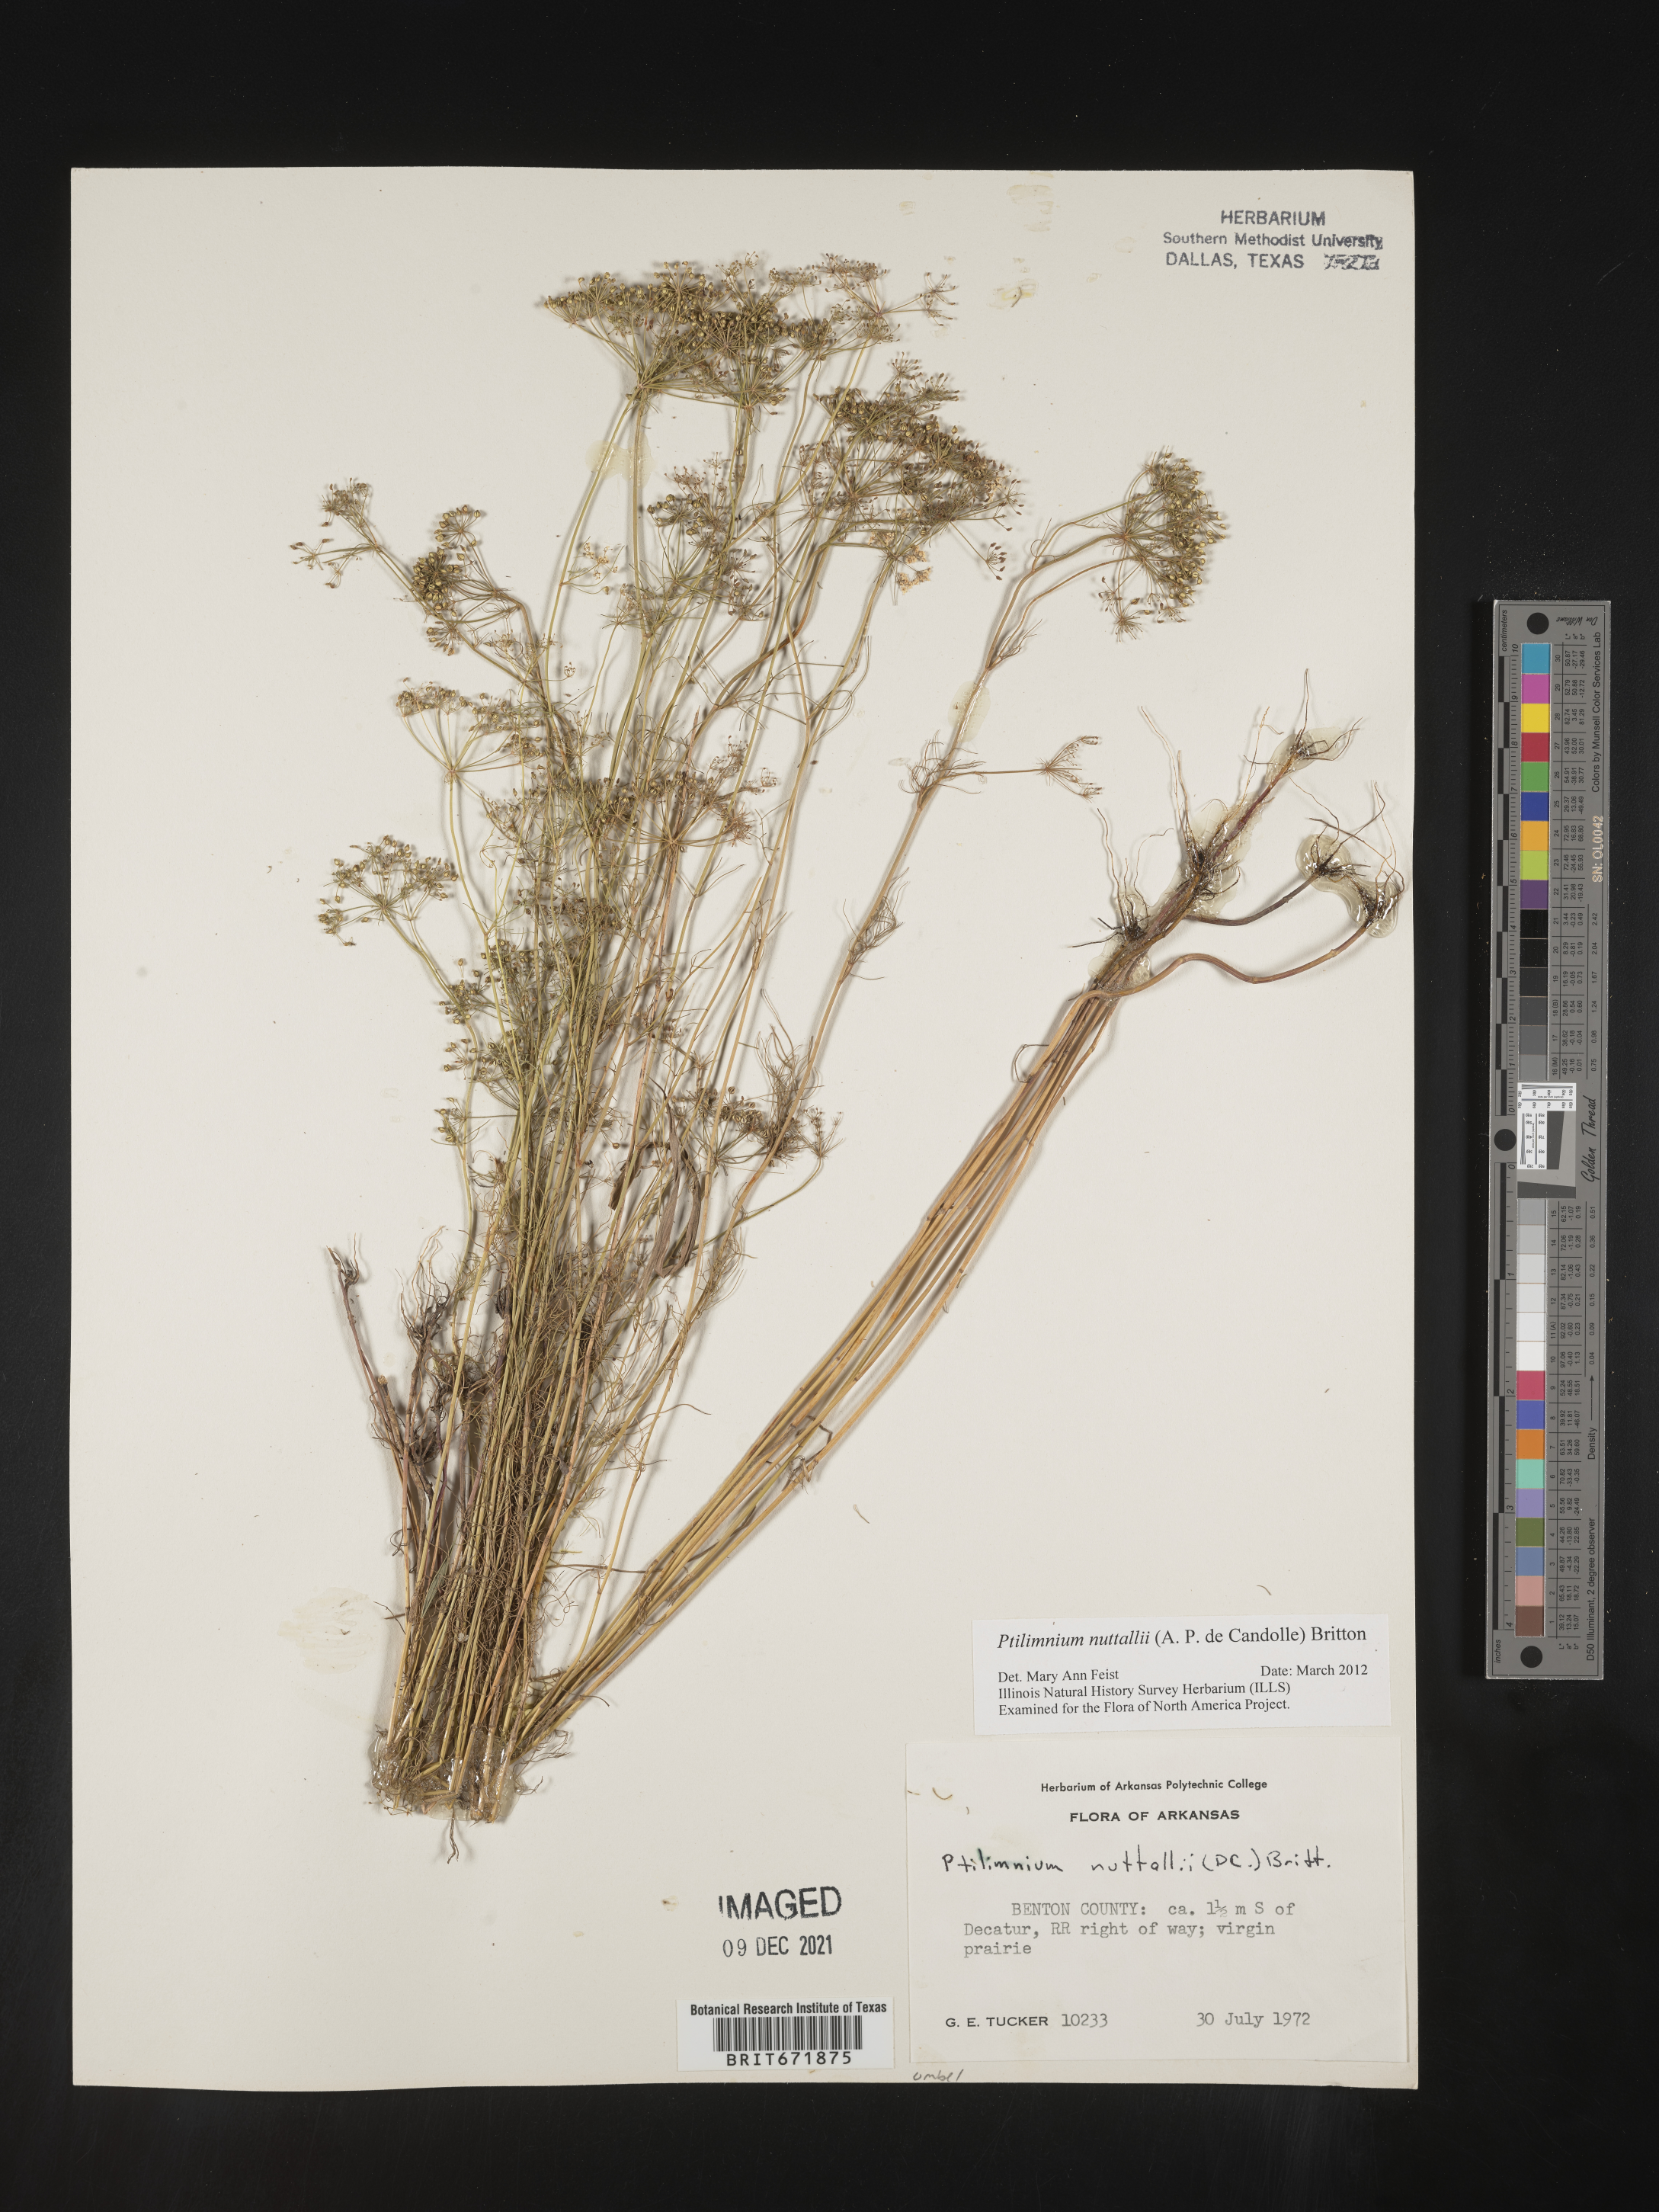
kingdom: Plantae
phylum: Tracheophyta
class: Magnoliopsida
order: Apiales
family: Apiaceae
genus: Ptilimnium
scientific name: Ptilimnium nuttallii
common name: Ozark bishop's-weed
